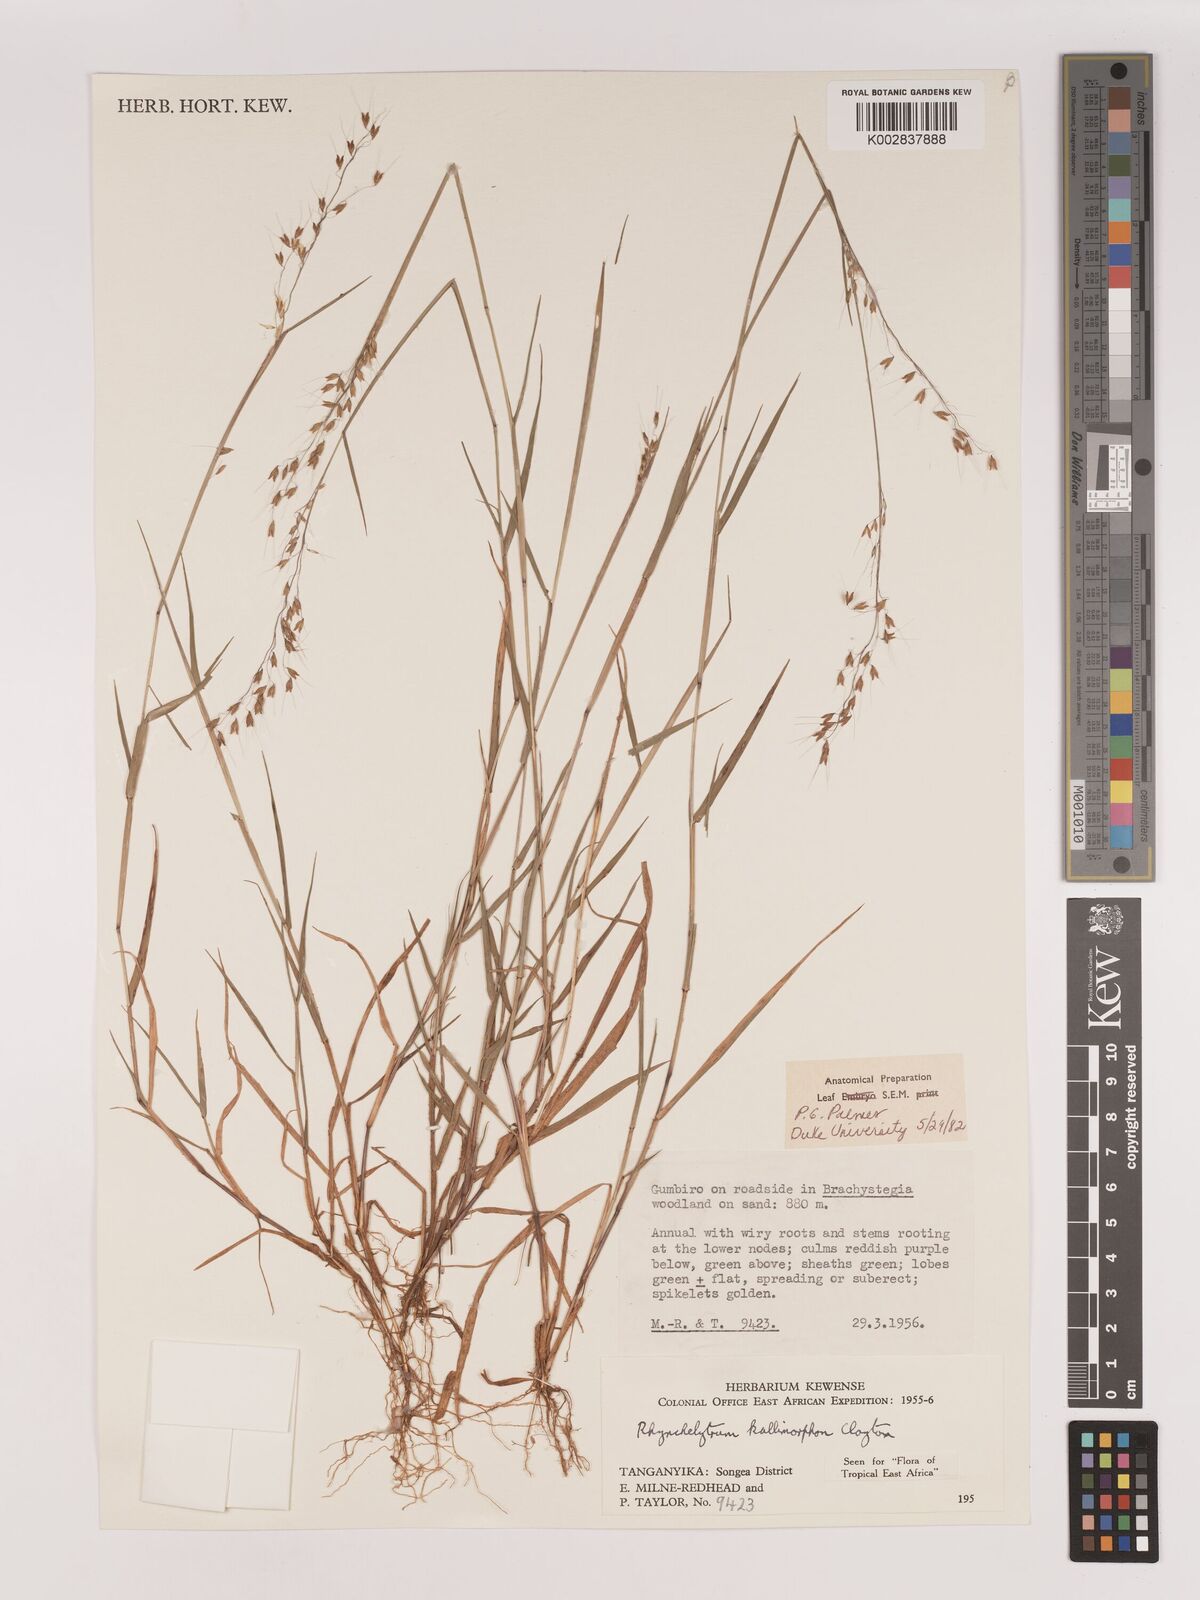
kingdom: Plantae
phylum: Tracheophyta
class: Liliopsida
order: Poales
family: Poaceae
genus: Melinis
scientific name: Melinis kallimorpha
